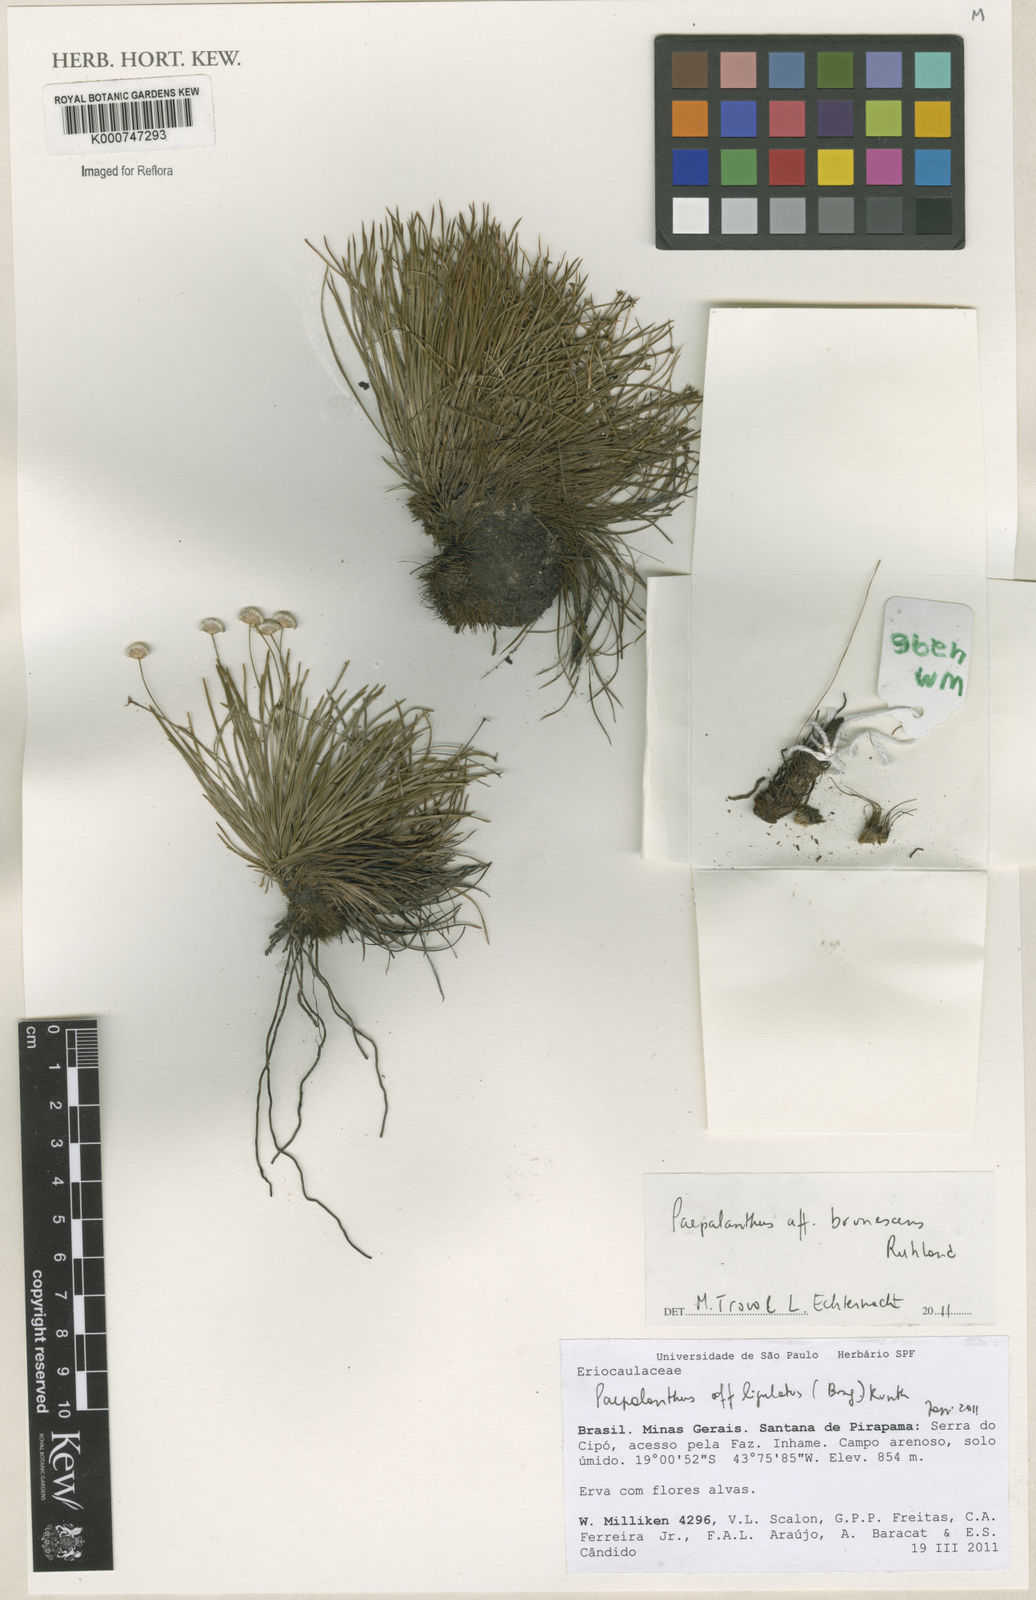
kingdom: Plantae
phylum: Tracheophyta
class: Liliopsida
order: Poales
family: Eriocaulaceae
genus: Paepalanthus
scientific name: Paepalanthus brunnescens
